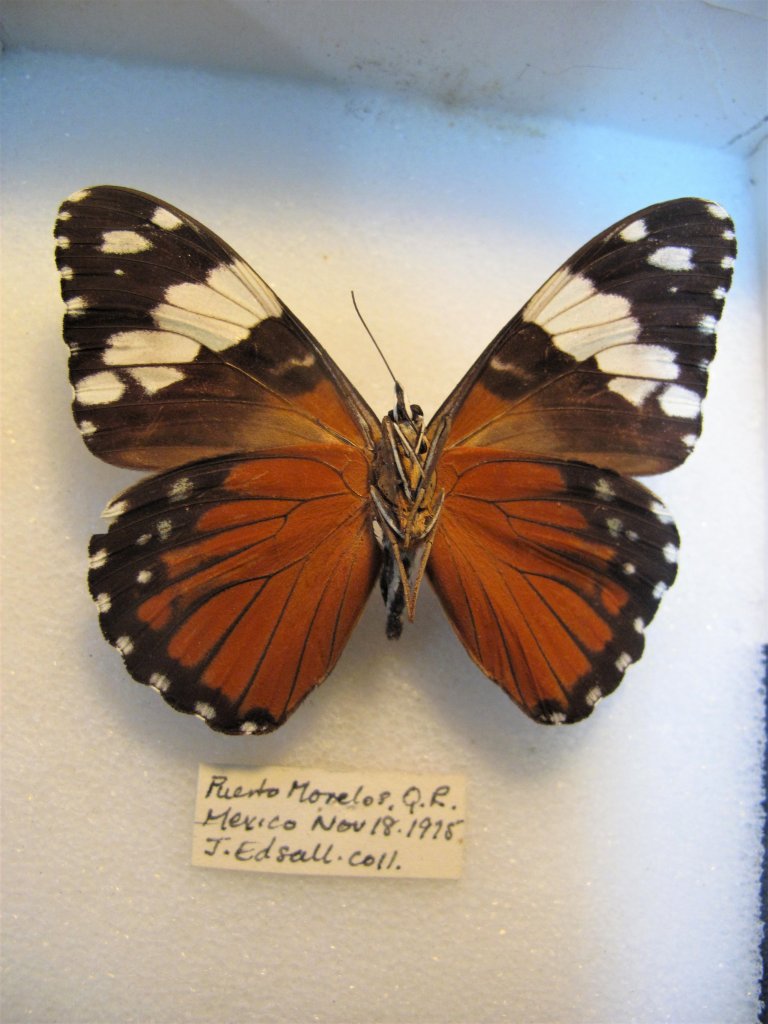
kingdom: Animalia
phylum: Arthropoda
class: Insecta
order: Lepidoptera
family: Nymphalidae
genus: Hamadryas
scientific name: Hamadryas amphinome
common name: Red Cracker
